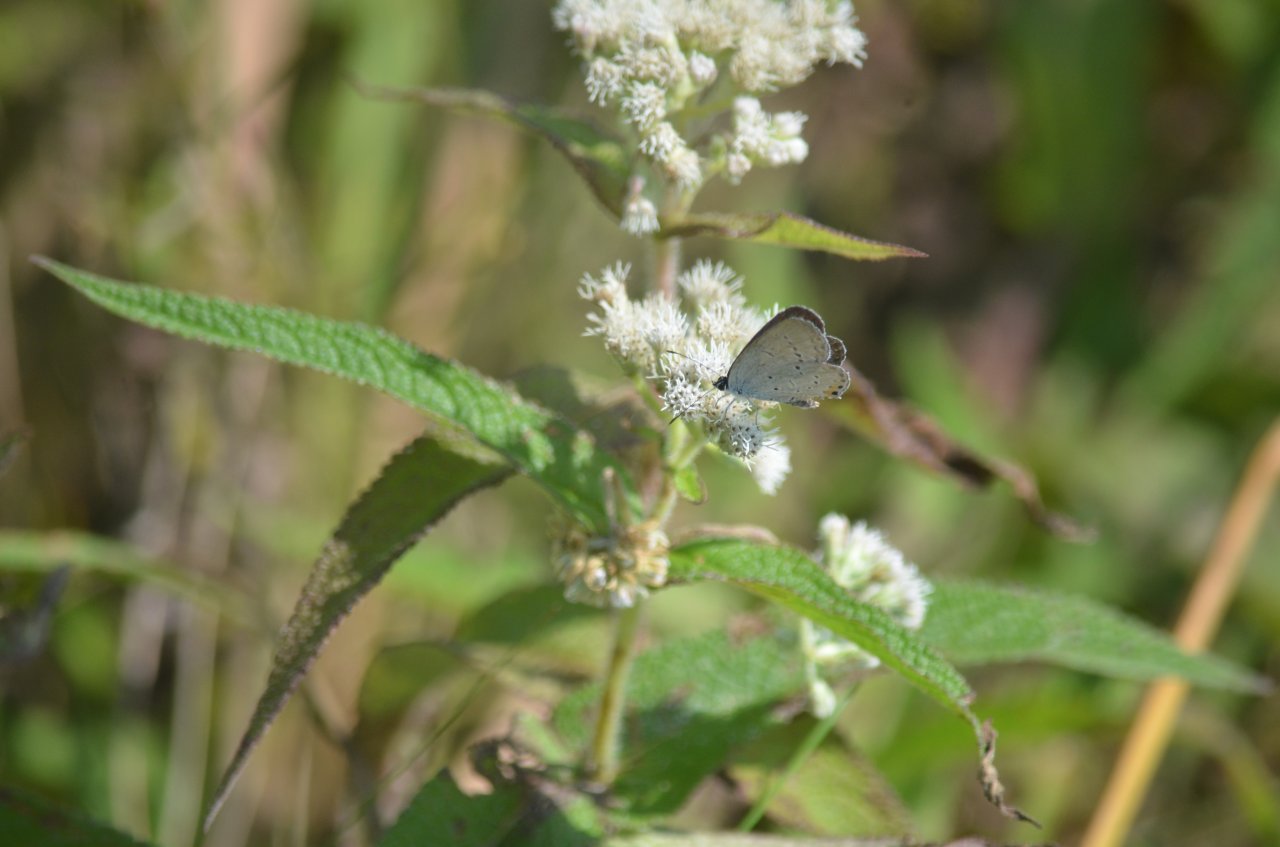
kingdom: Animalia
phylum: Arthropoda
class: Insecta
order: Lepidoptera
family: Lycaenidae
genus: Elkalyce
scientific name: Elkalyce comyntas
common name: Eastern Tailed-Blue
